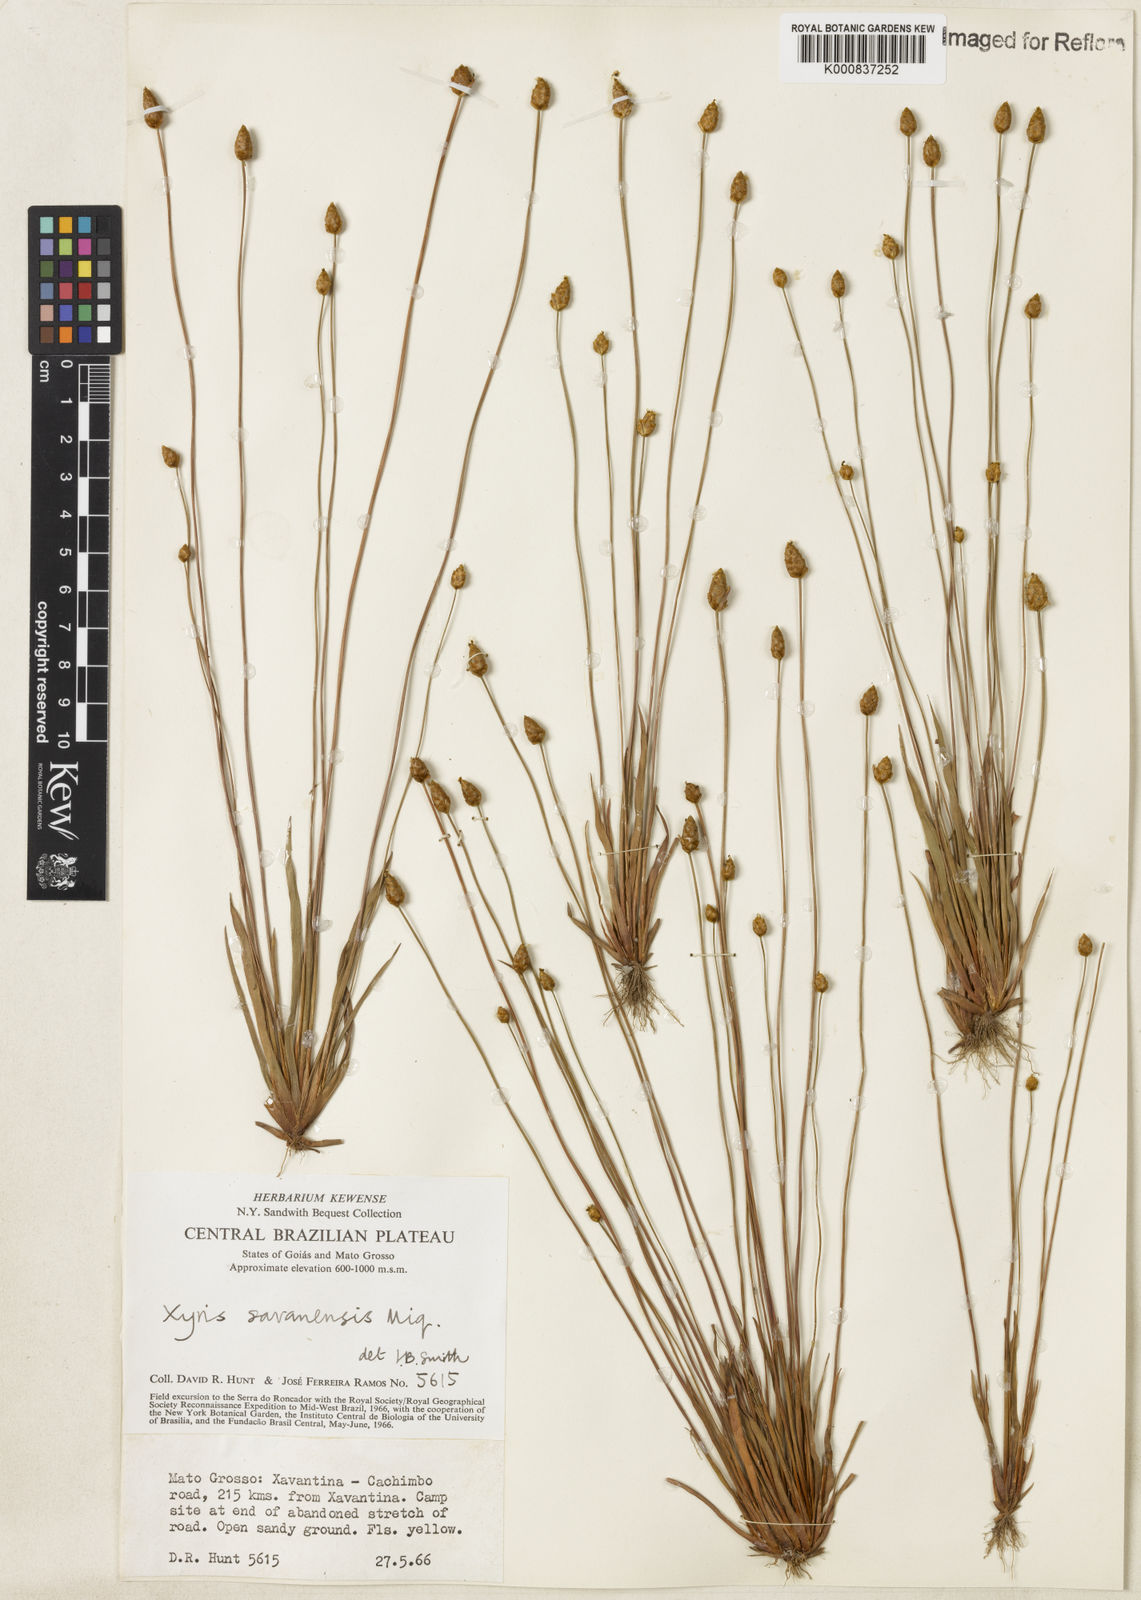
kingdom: Plantae
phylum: Tracheophyta
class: Liliopsida
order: Poales
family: Xyridaceae
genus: Xyris
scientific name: Xyris savanensis
